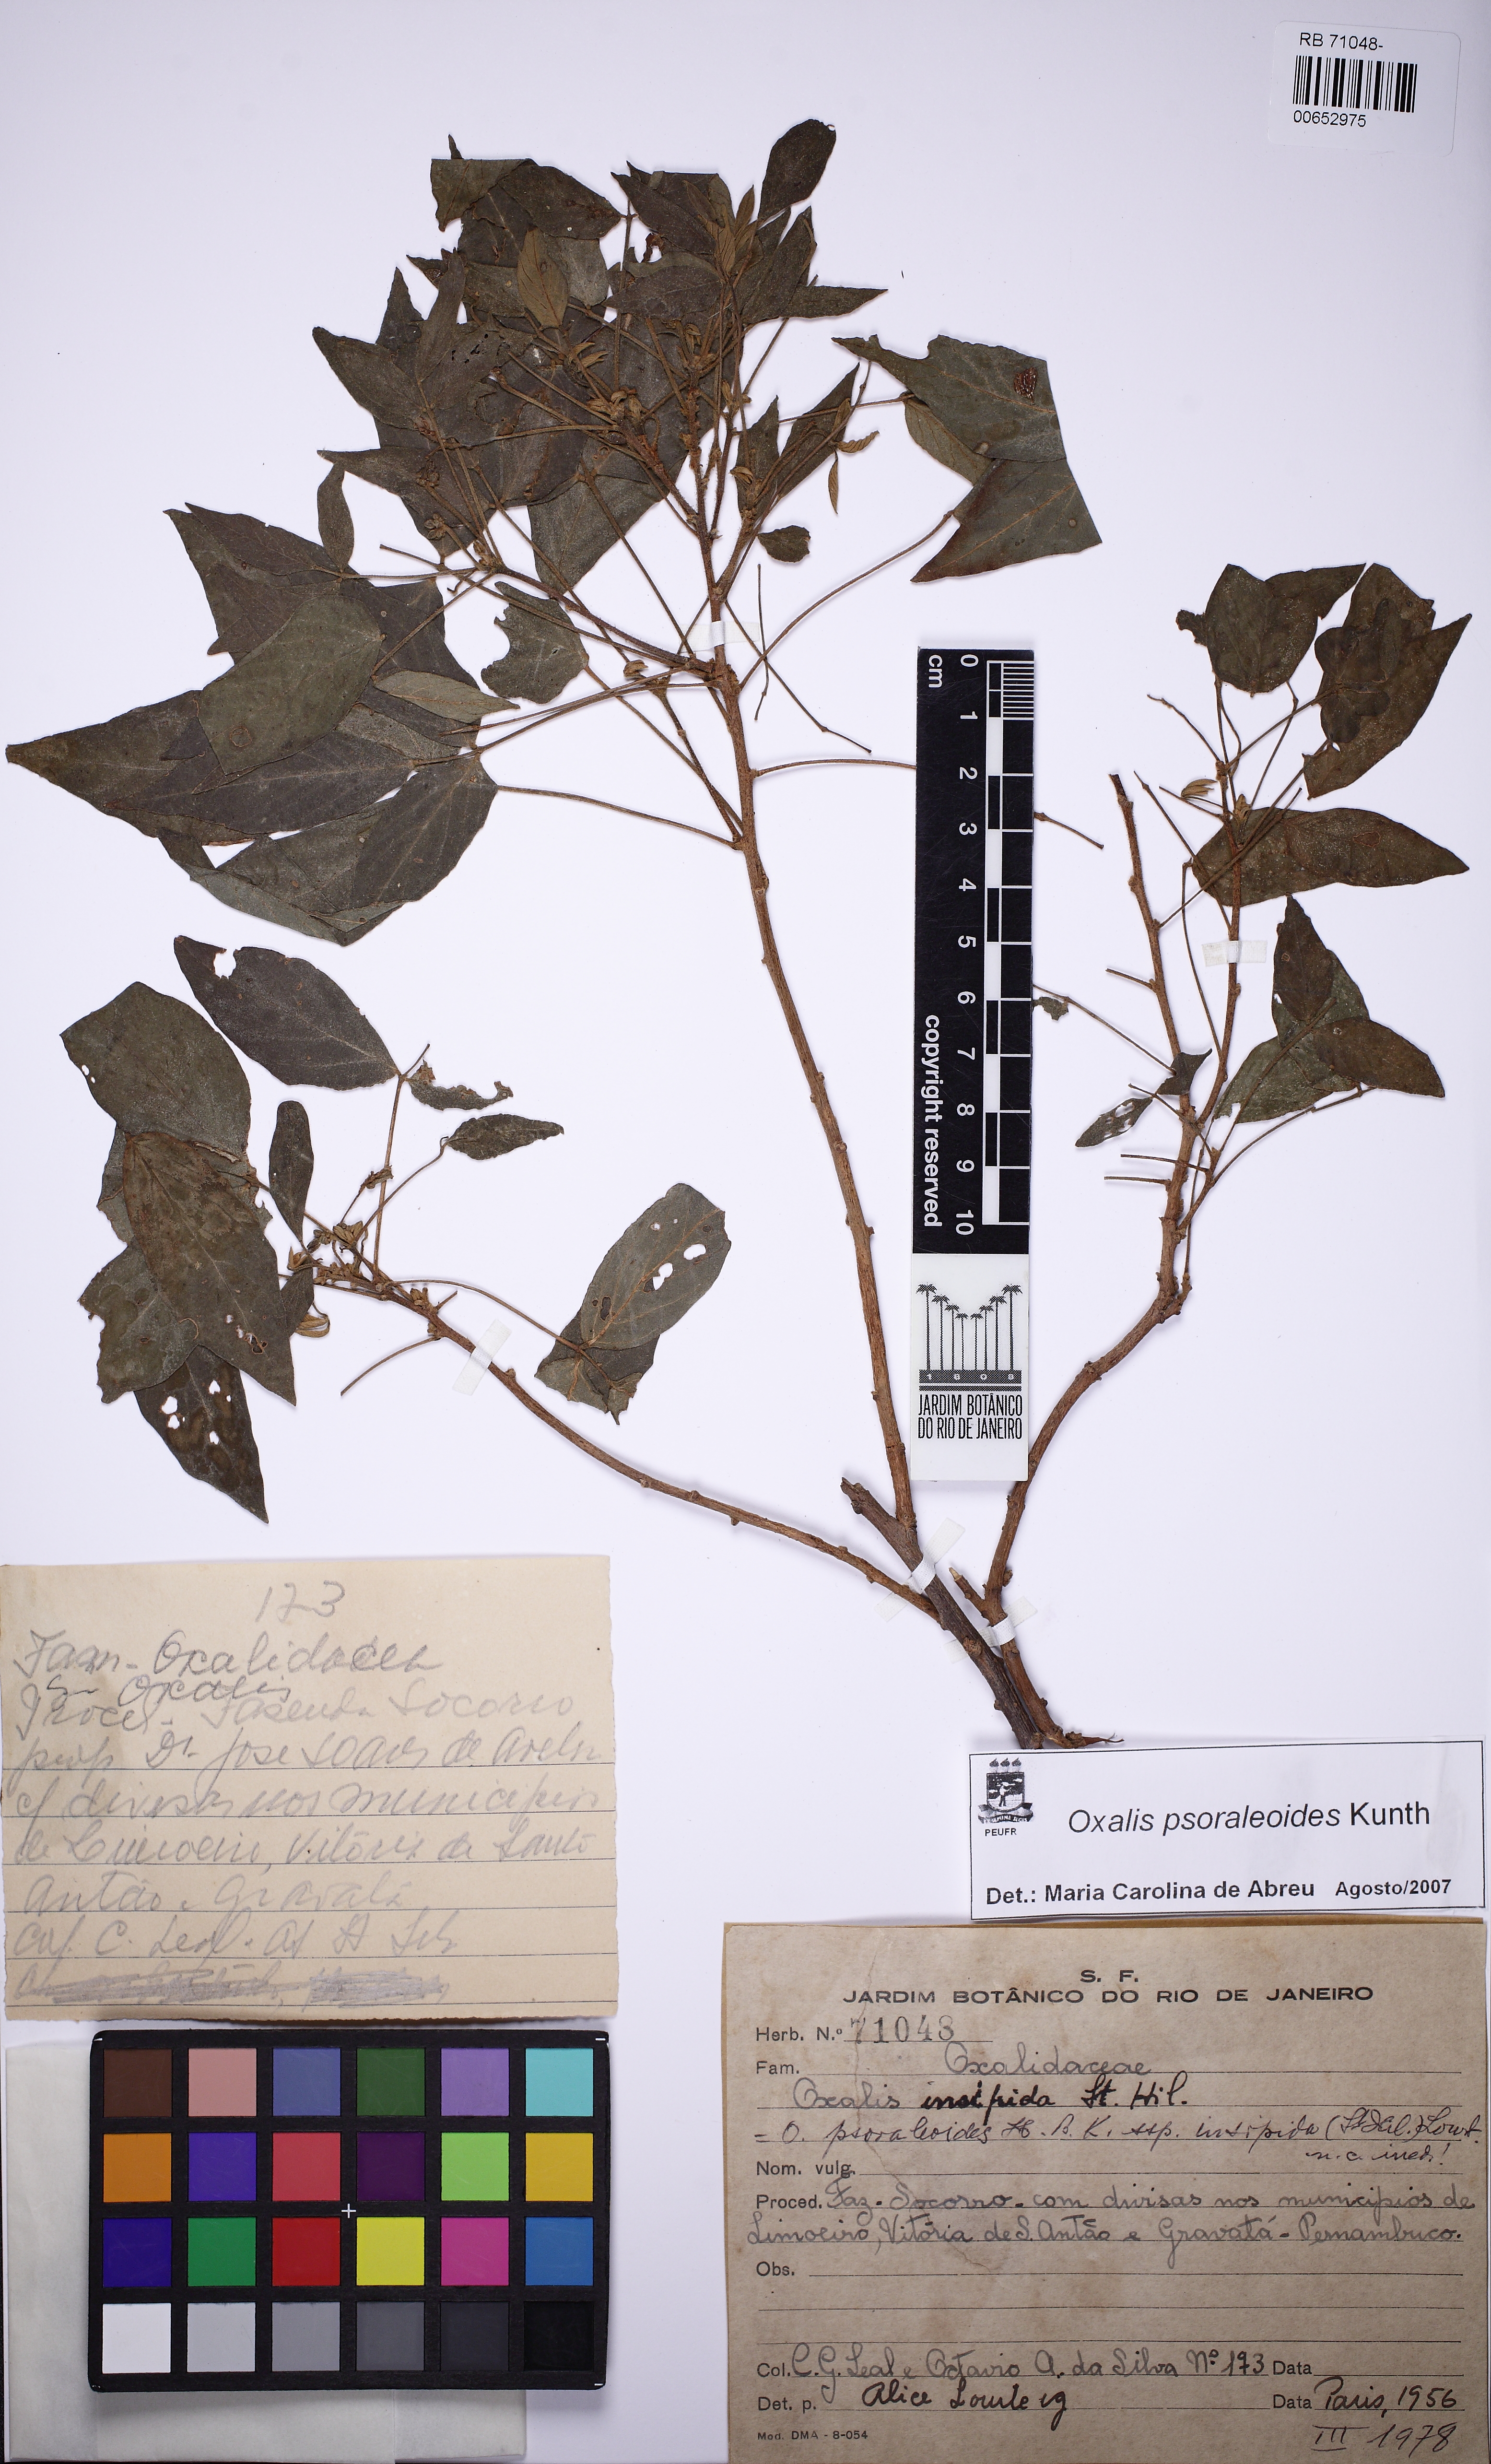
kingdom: Plantae
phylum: Tracheophyta
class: Magnoliopsida
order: Oxalidales
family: Oxalidaceae
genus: Oxalis
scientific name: Oxalis psoraleoides
